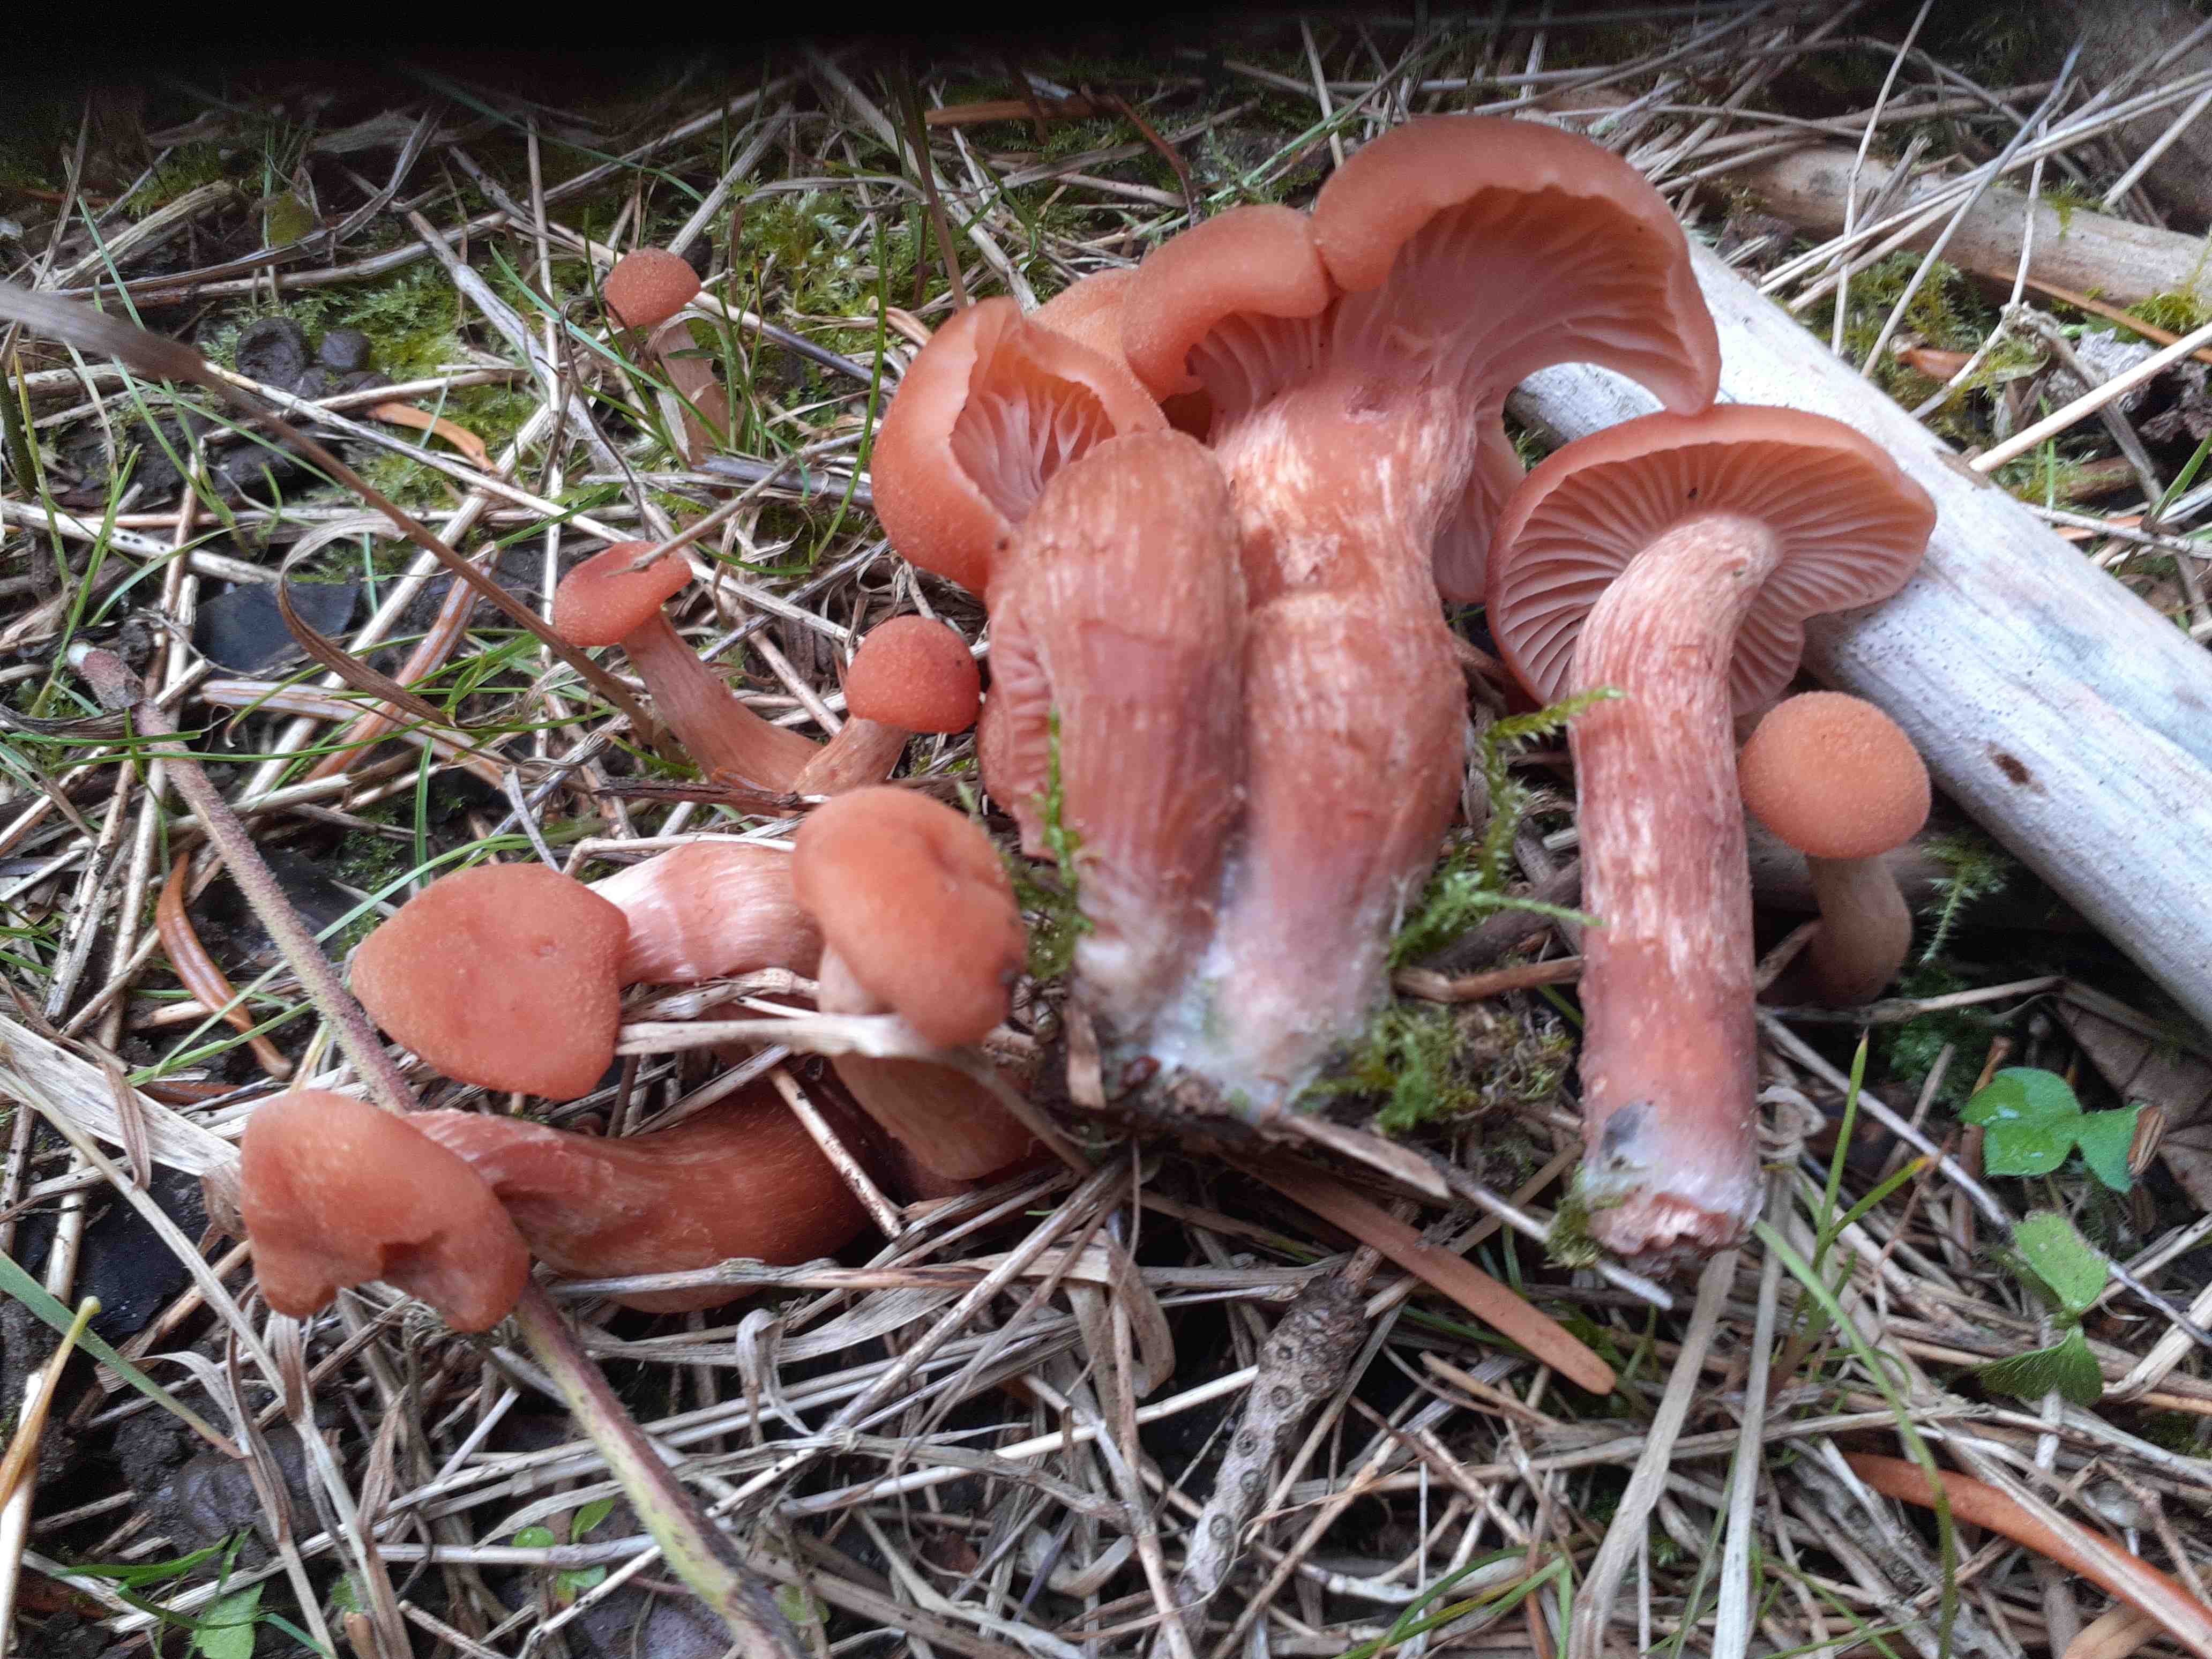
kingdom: Fungi
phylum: Basidiomycota
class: Agaricomycetes
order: Agaricales
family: Hydnangiaceae
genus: Laccaria
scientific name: Laccaria laccata
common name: rød ametysthat
